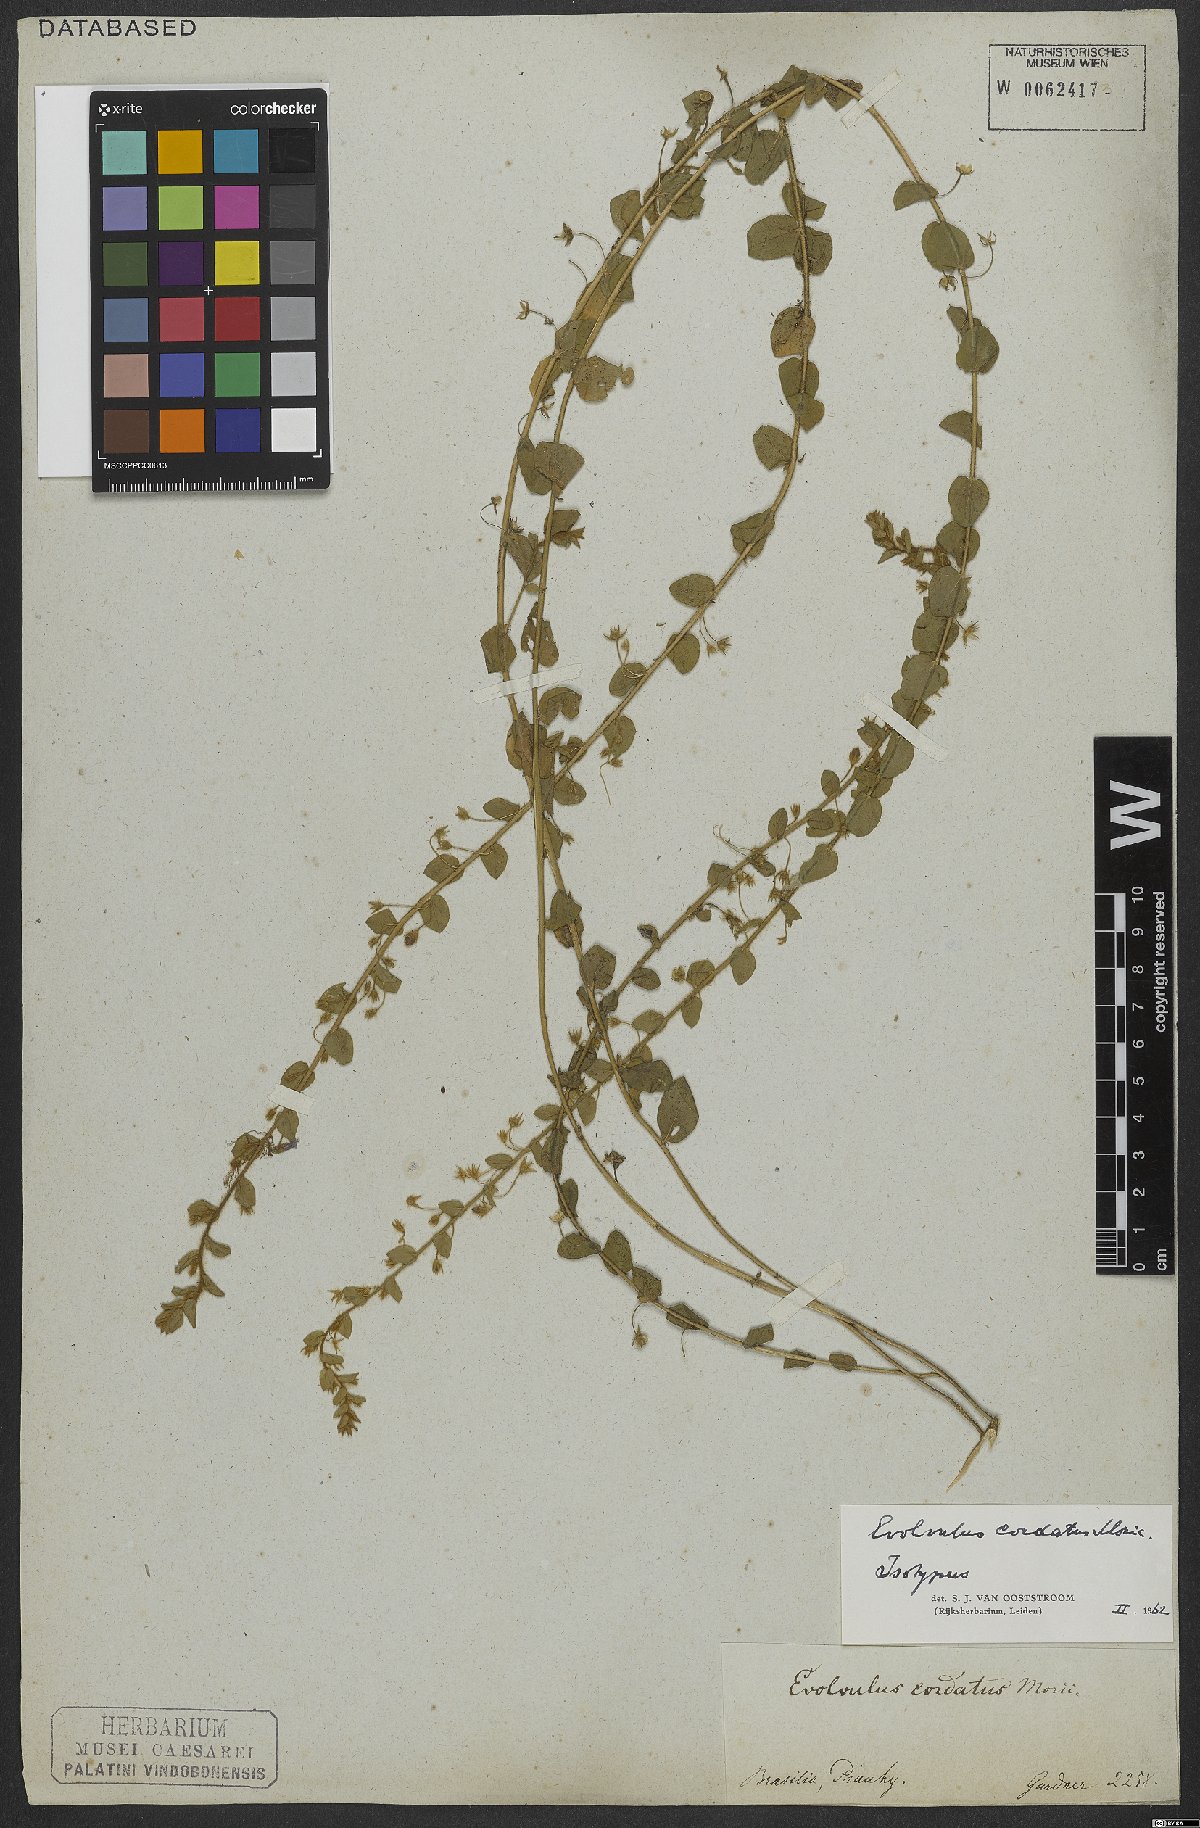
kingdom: Plantae
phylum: Tracheophyta
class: Magnoliopsida
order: Solanales
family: Convolvulaceae
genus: Evolvulus
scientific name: Evolvulus cordatus
